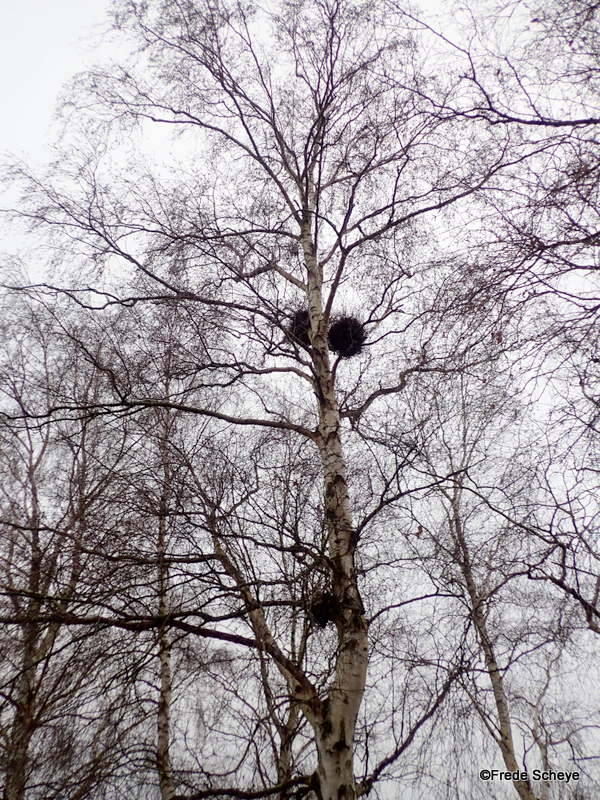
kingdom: Fungi
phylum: Ascomycota
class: Taphrinomycetes
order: Taphrinales
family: Taphrinaceae
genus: Taphrina
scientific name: Taphrina betulina
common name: hekse-sækdug
